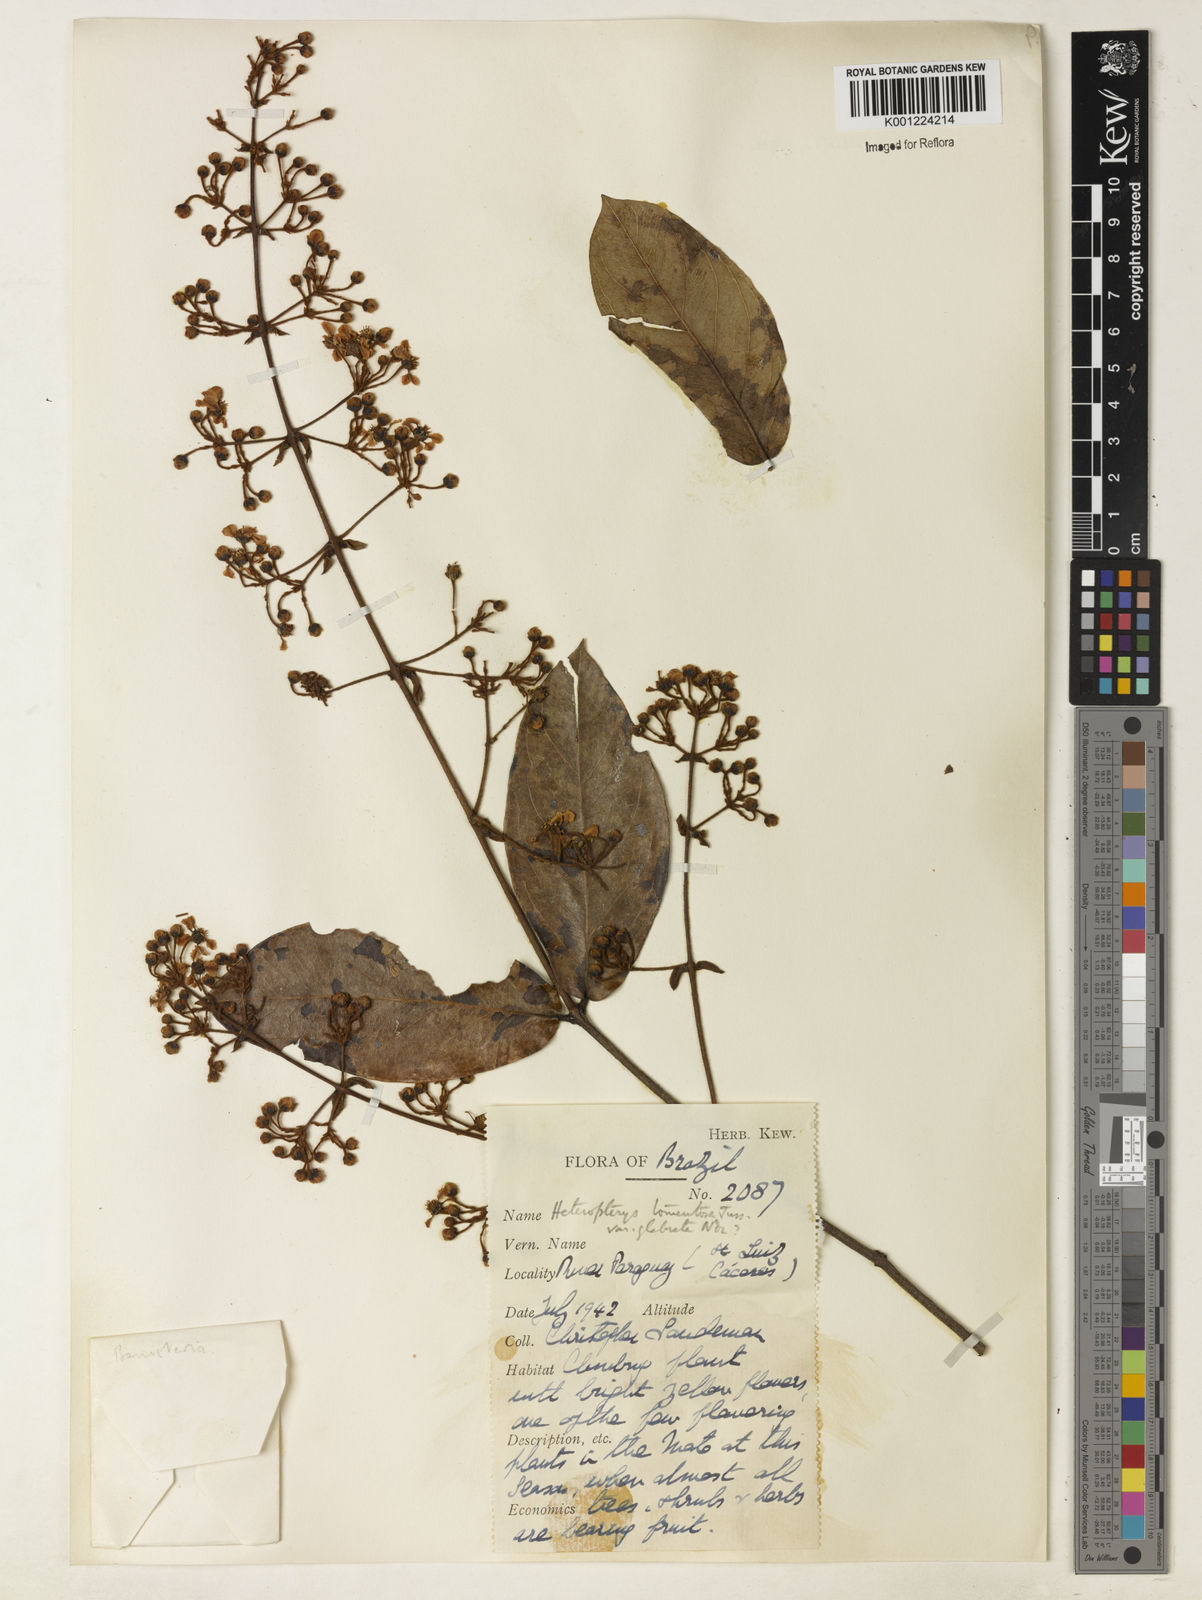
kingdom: Plantae
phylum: Tracheophyta
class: Magnoliopsida
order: Malpighiales
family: Malpighiaceae
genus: Heteropterys
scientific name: Heteropterys tomentosa
